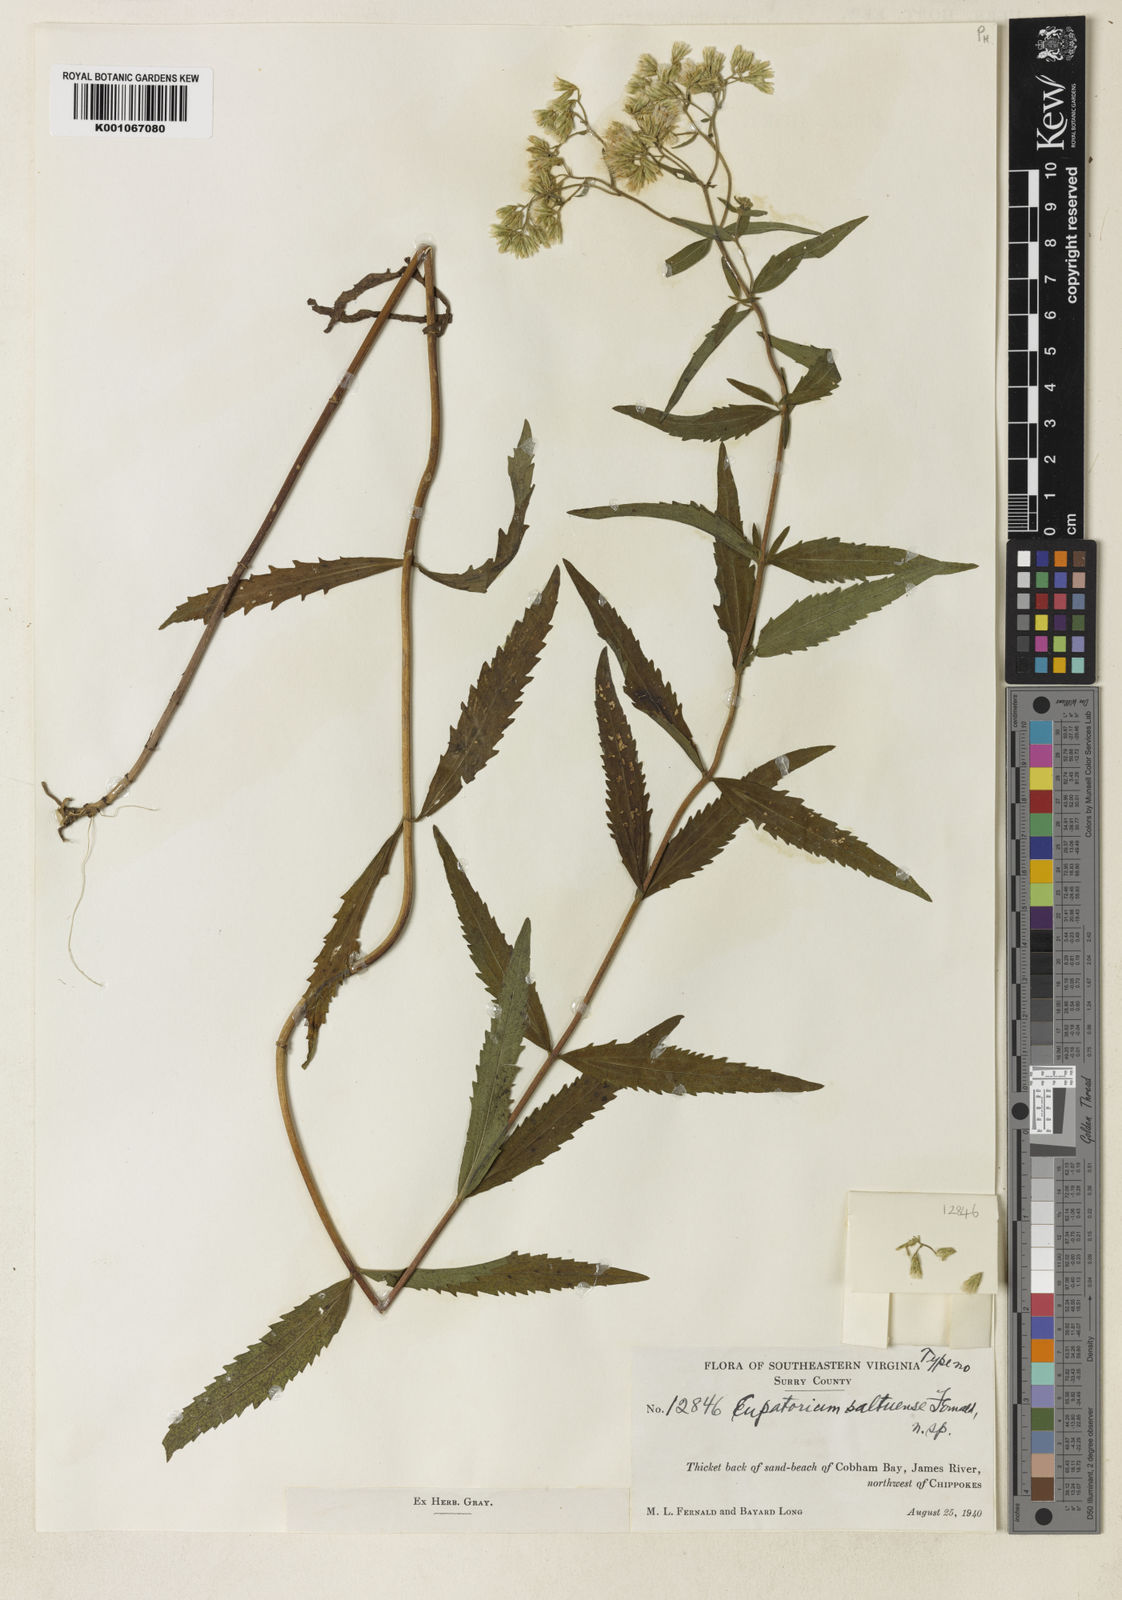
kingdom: Plantae
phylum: Tracheophyta
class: Magnoliopsida
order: Asterales
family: Asteraceae
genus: Eupatorium
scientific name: Eupatorium altissimum
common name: Tall thoroughwort
